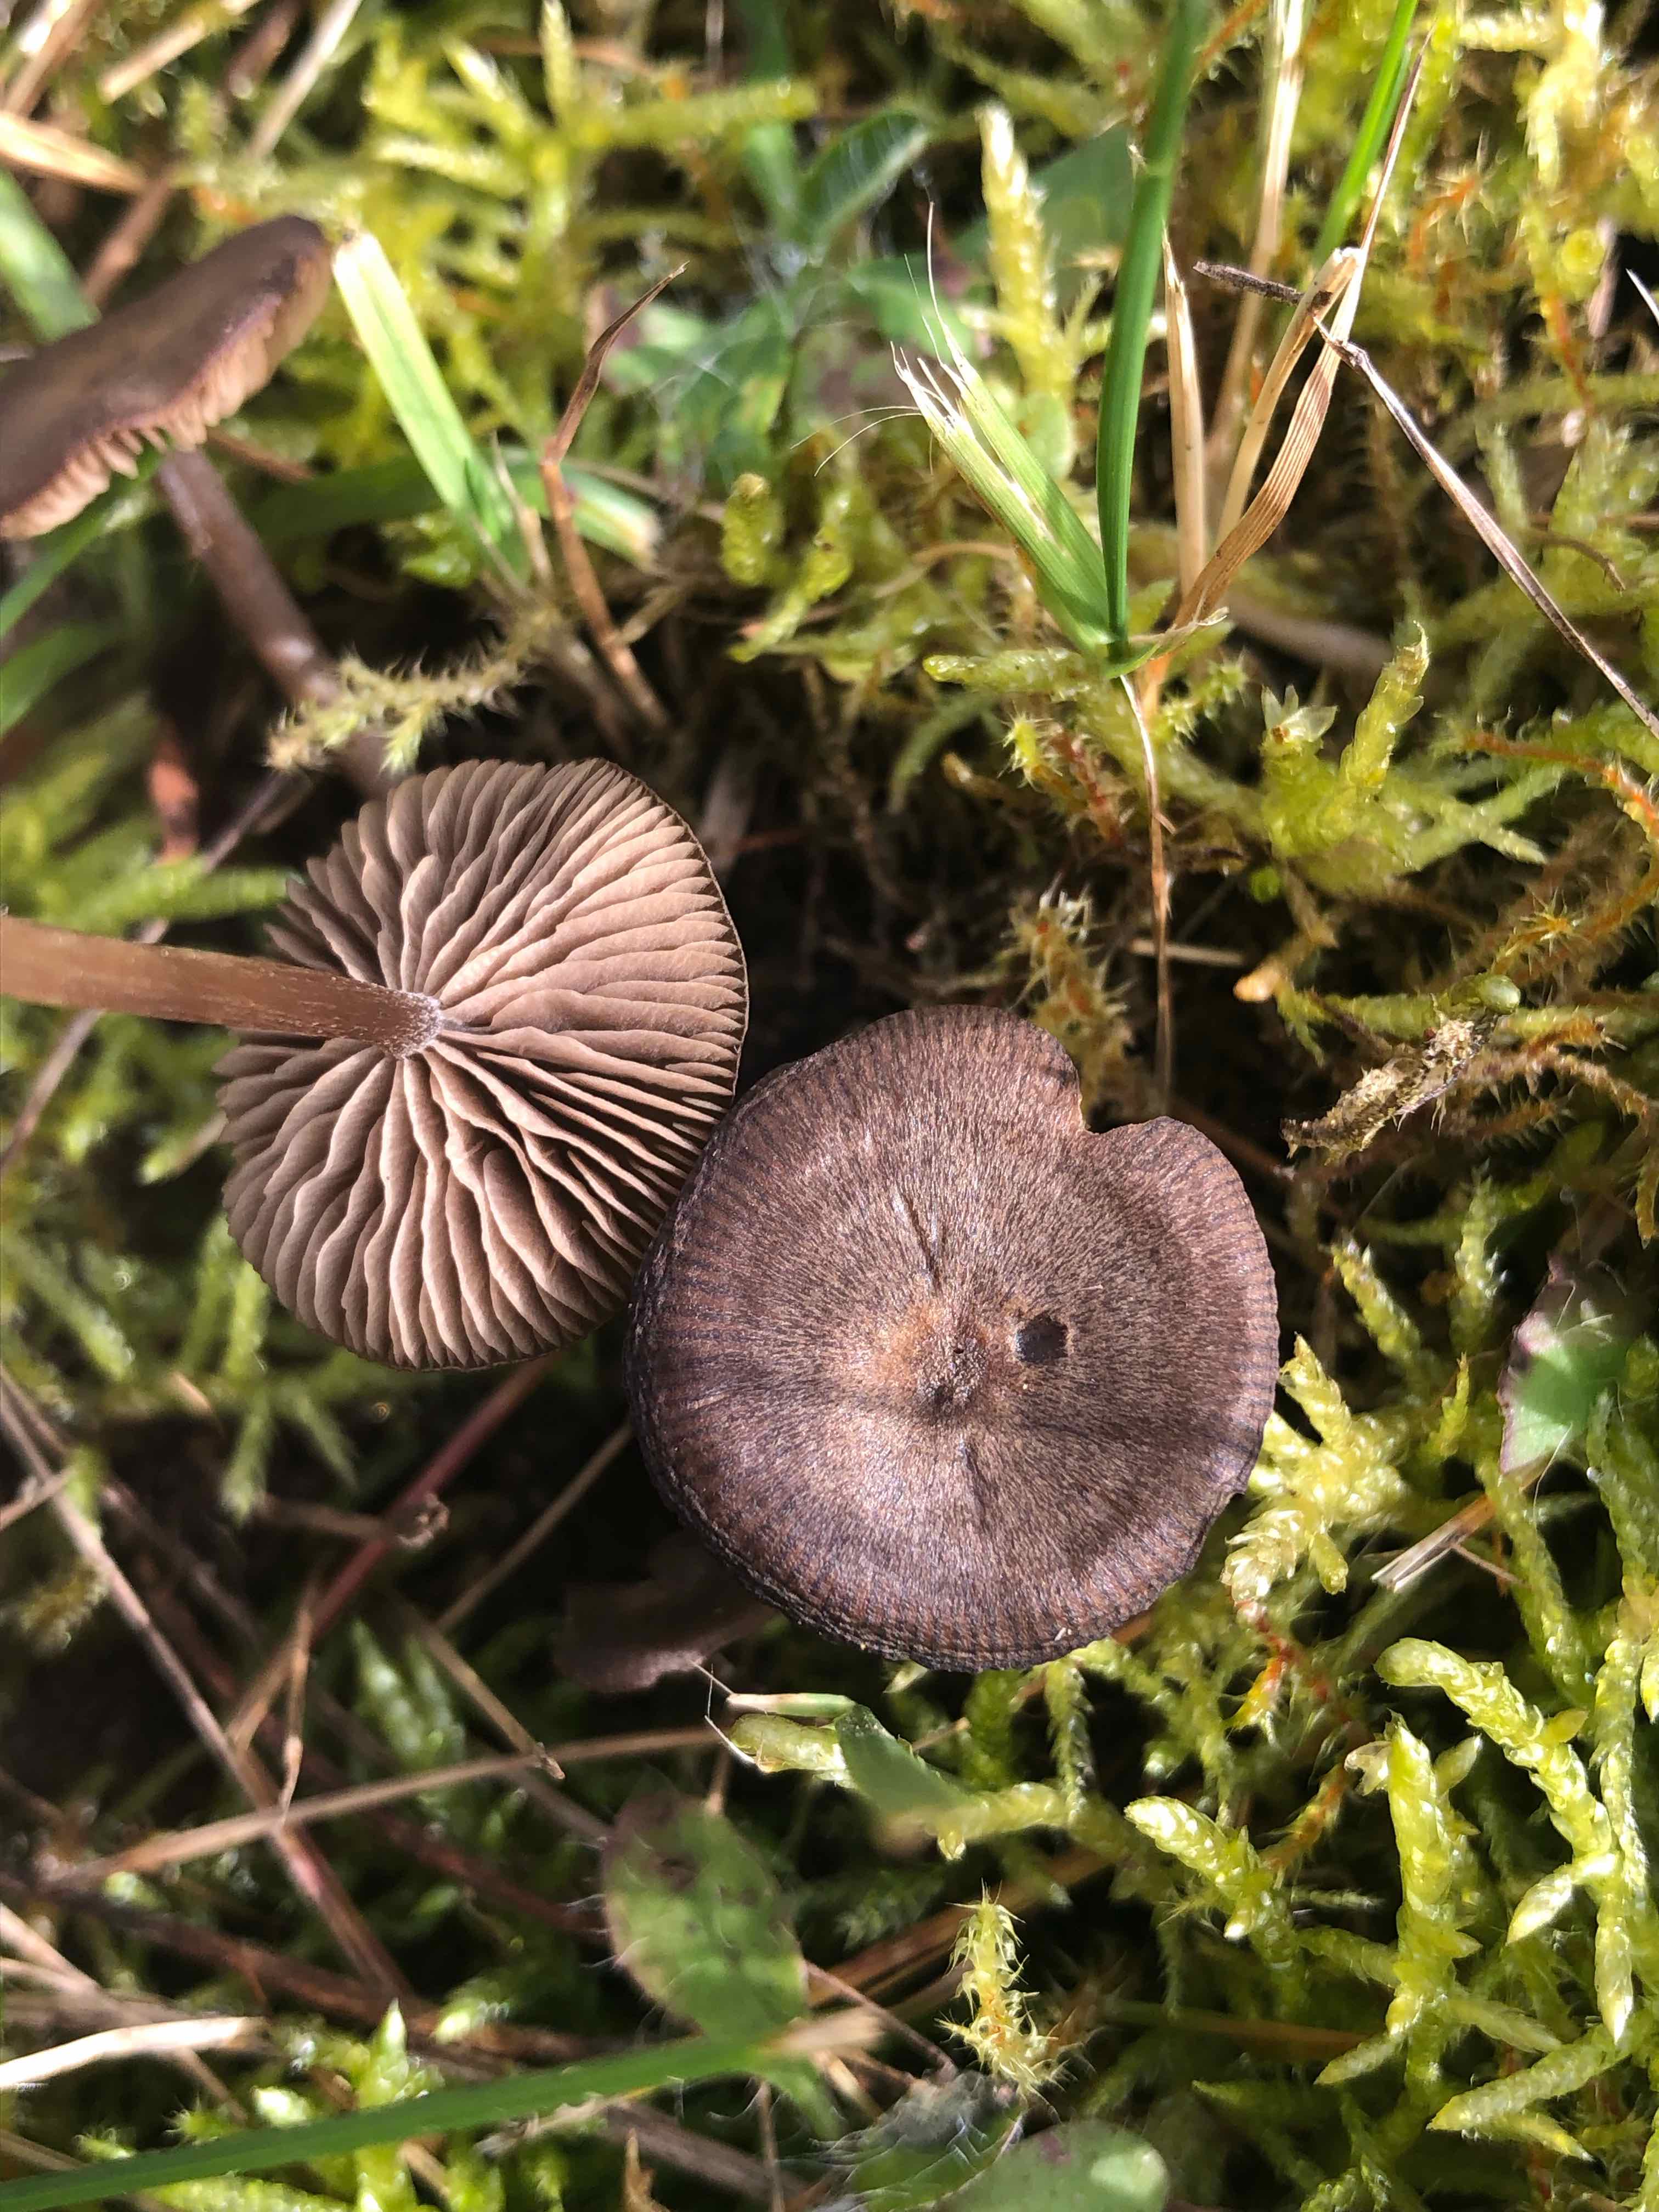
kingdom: Fungi
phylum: Basidiomycota
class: Agaricomycetes
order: Agaricales
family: Entolomataceae
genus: Entoloma
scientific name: Entoloma
